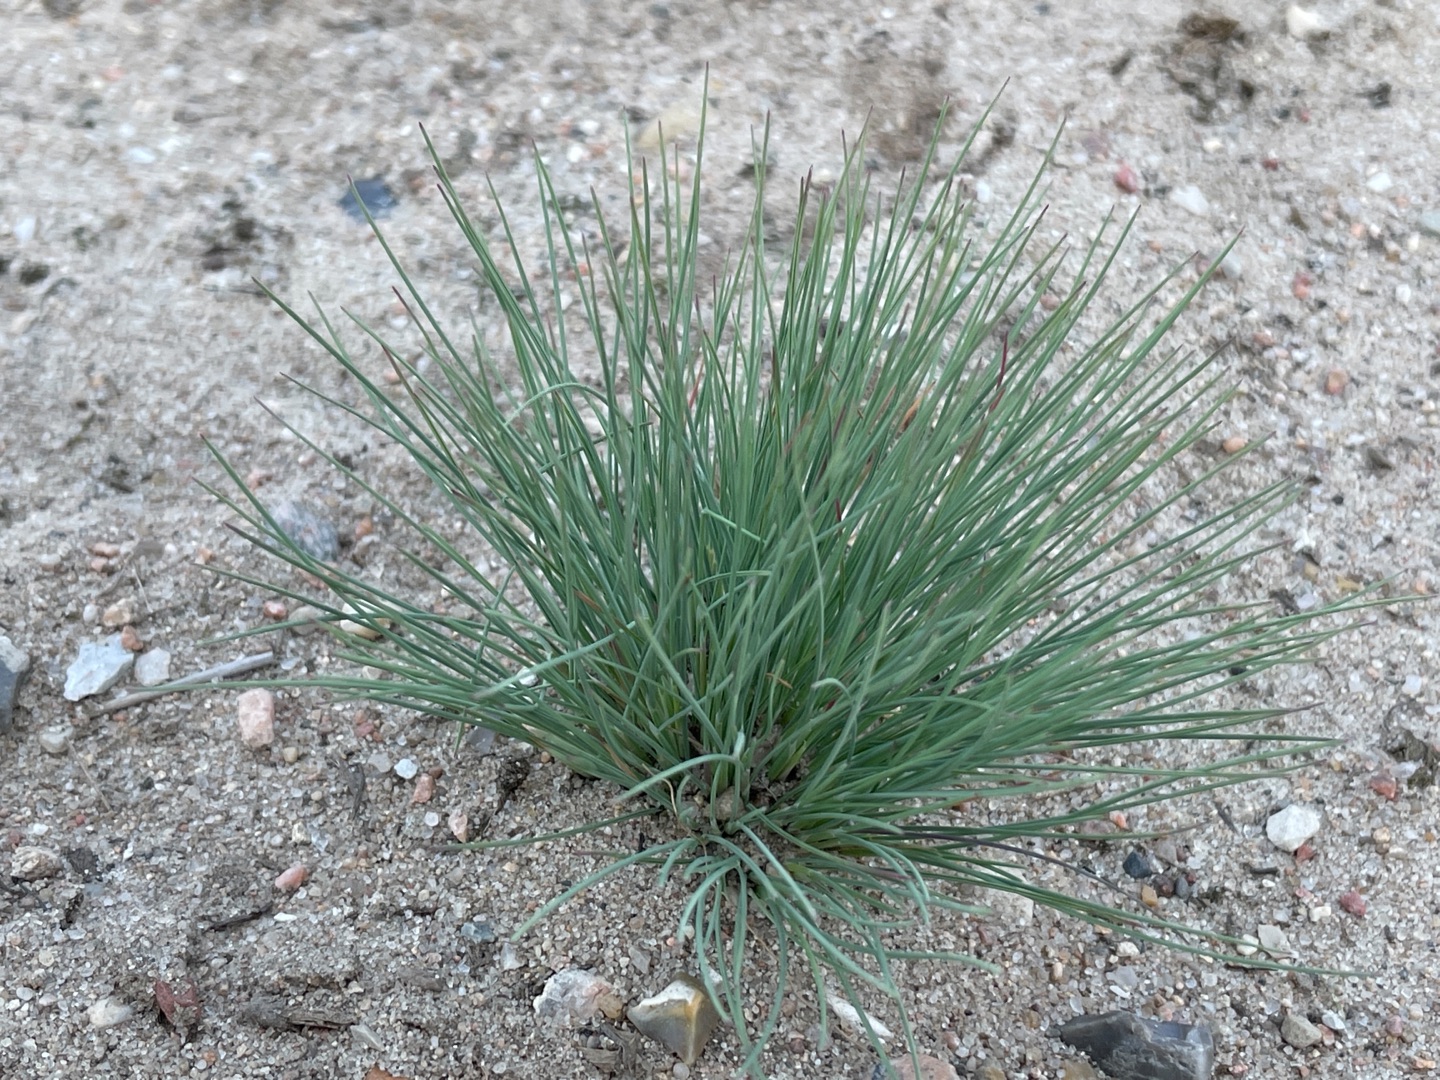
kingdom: Plantae
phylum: Tracheophyta
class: Liliopsida
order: Poales
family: Poaceae
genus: Corynephorus
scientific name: Corynephorus canescens
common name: Sandskæg
